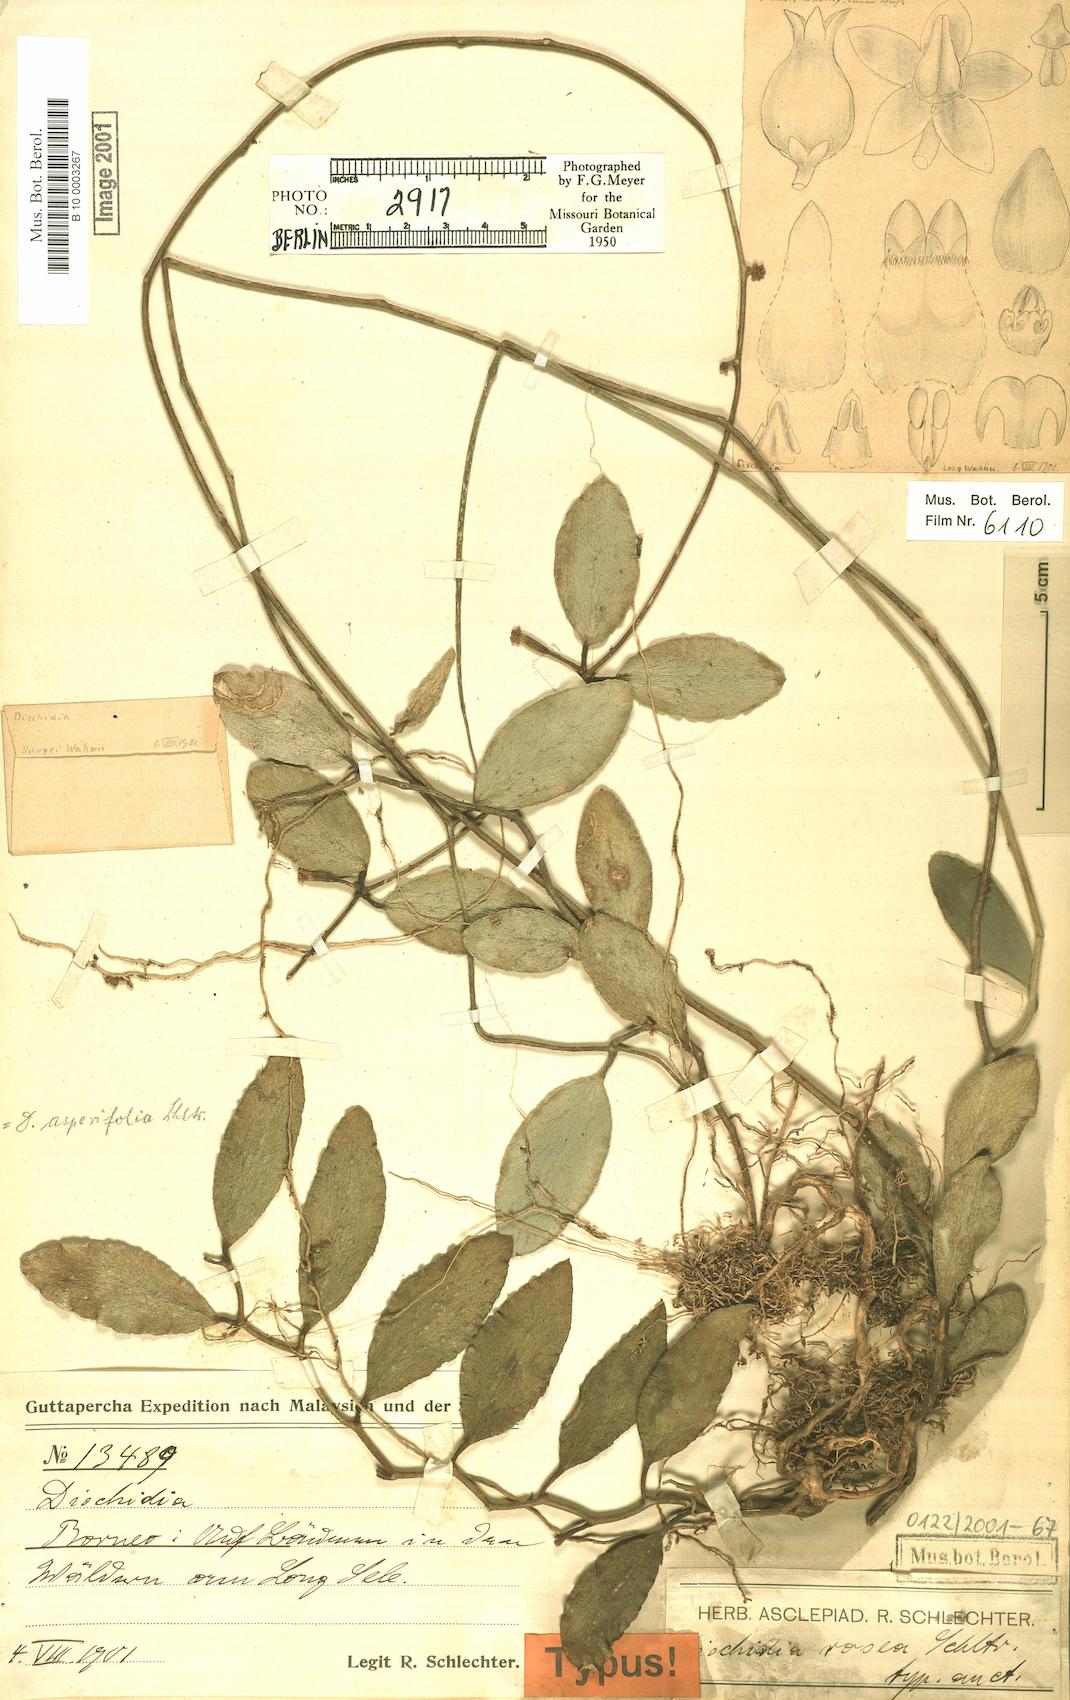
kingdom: Plantae
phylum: Tracheophyta
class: Magnoliopsida
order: Gentianales
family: Apocynaceae
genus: Dischidia
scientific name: Dischidia rosea
